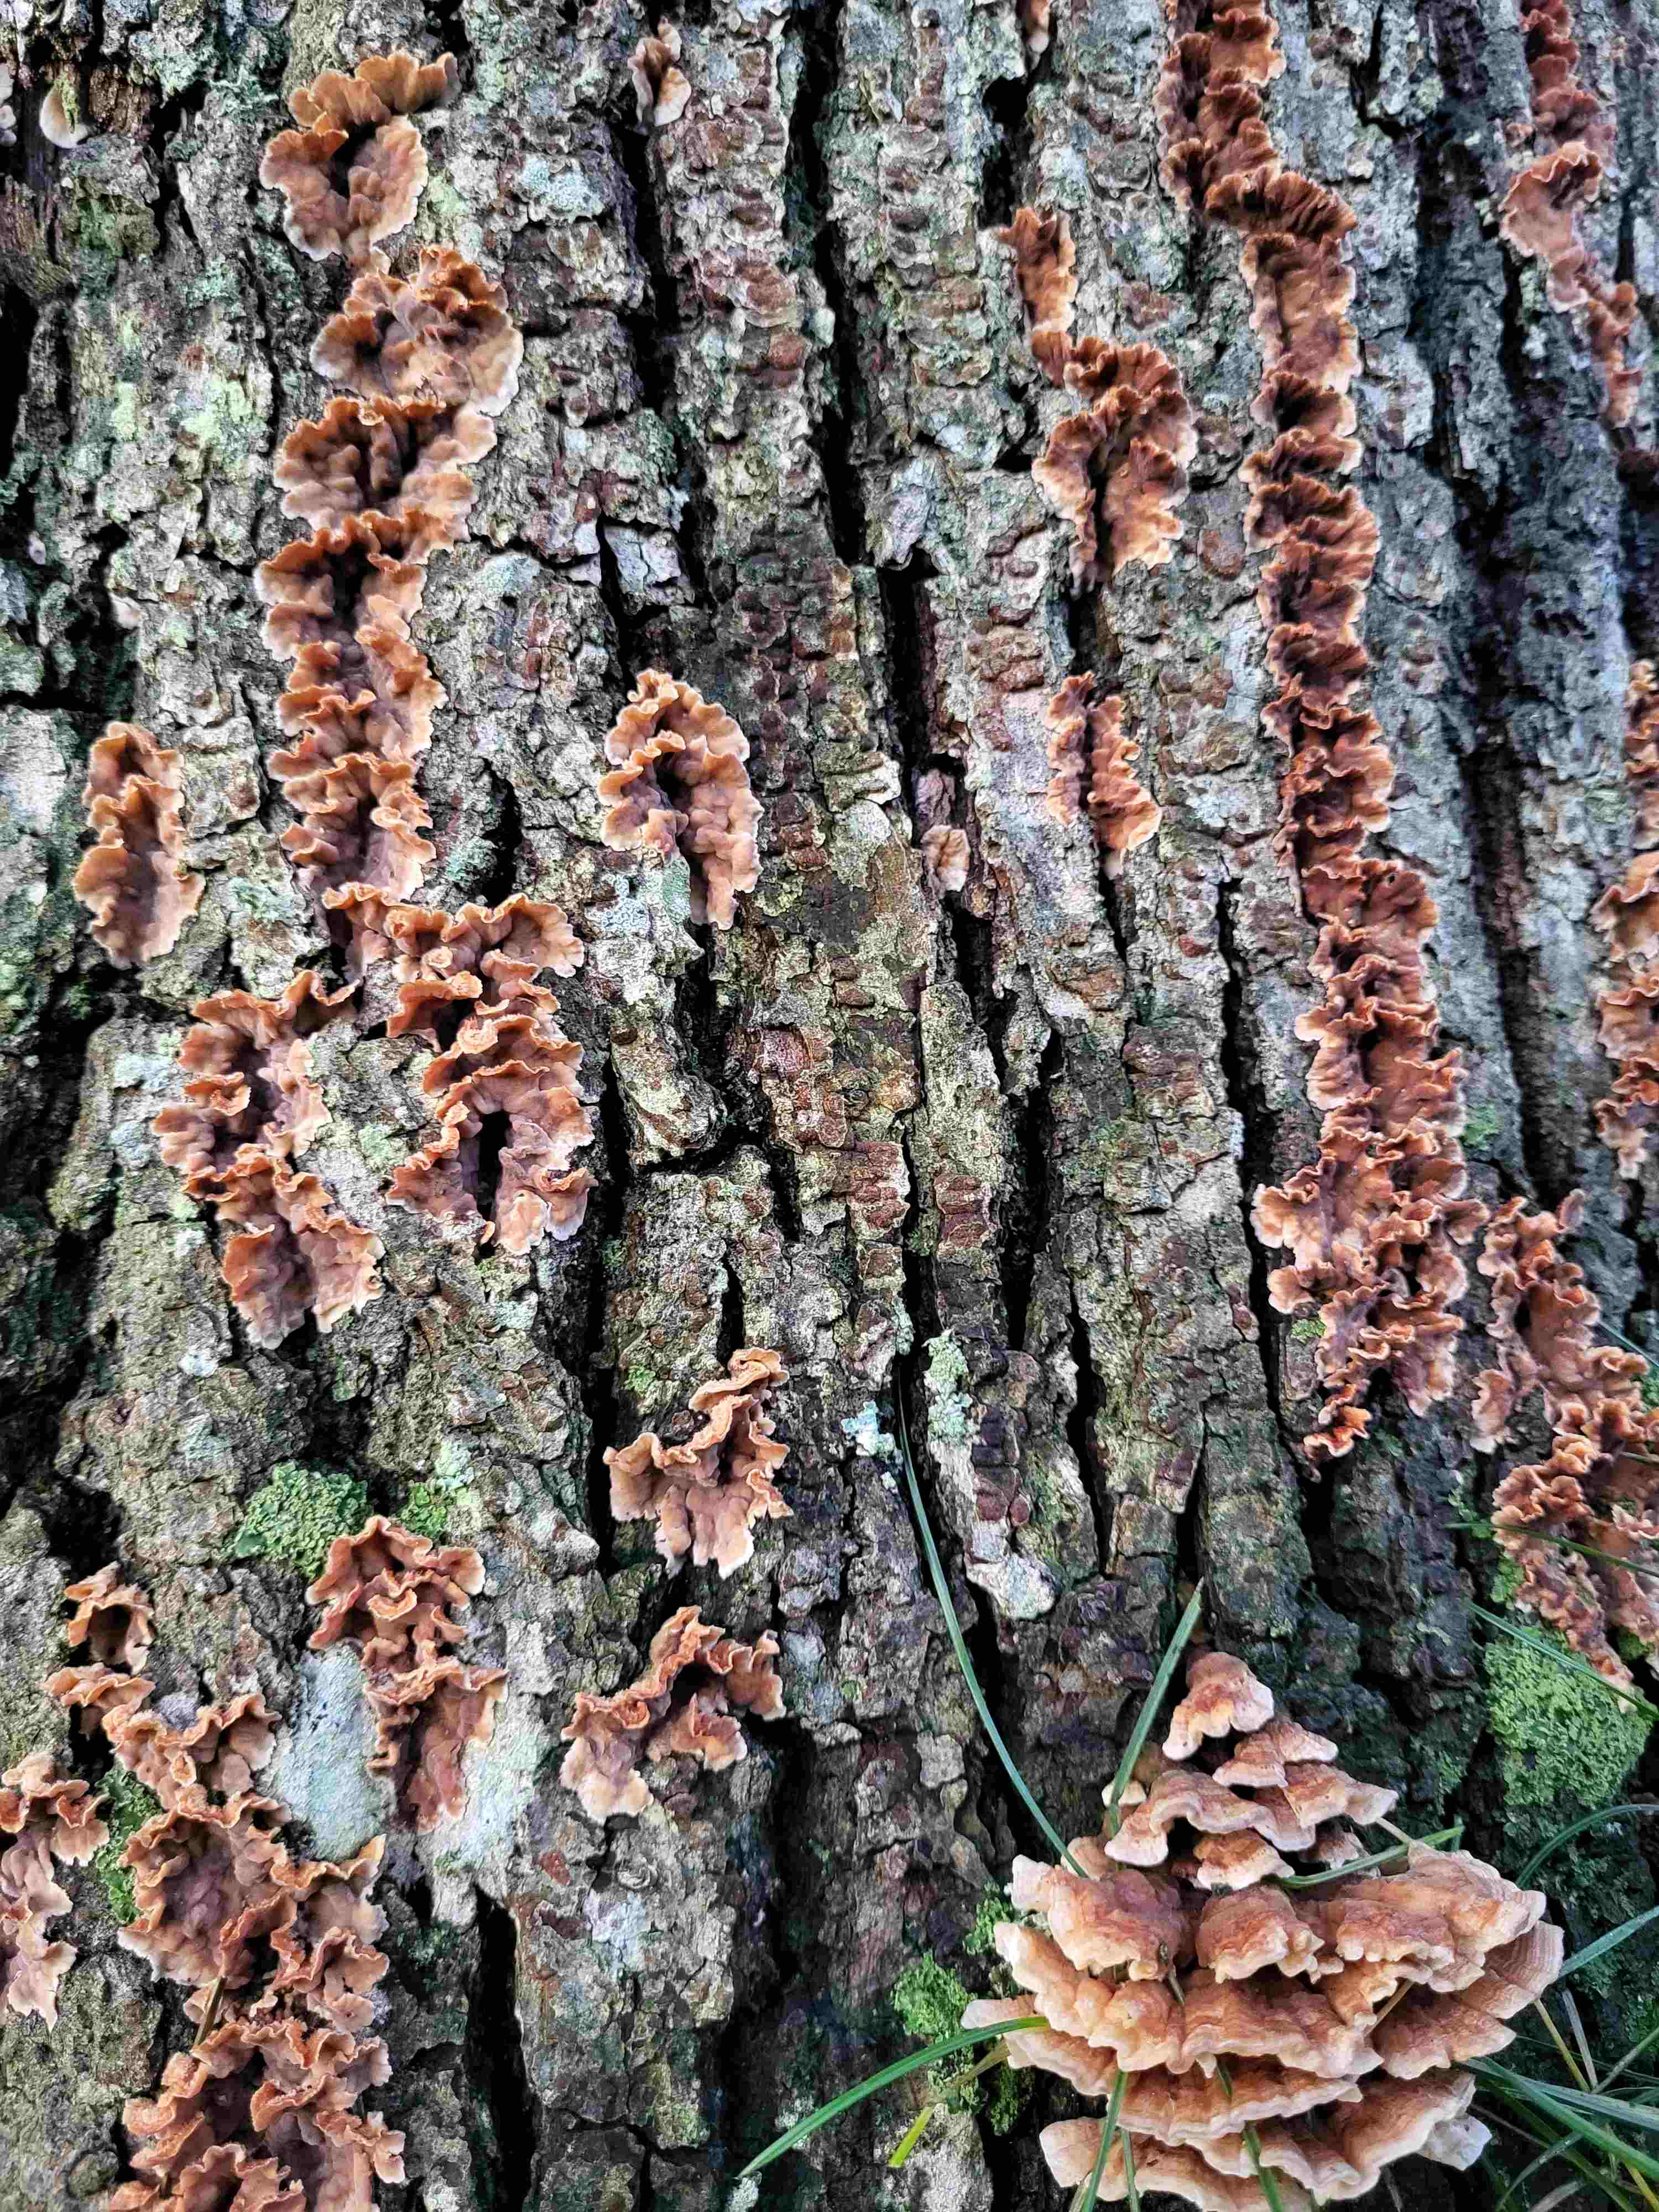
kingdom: Fungi
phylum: Basidiomycota
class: Agaricomycetes
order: Agaricales
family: Cyphellaceae
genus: Chondrostereum
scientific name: Chondrostereum purpureum
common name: purpurlædersvamp
